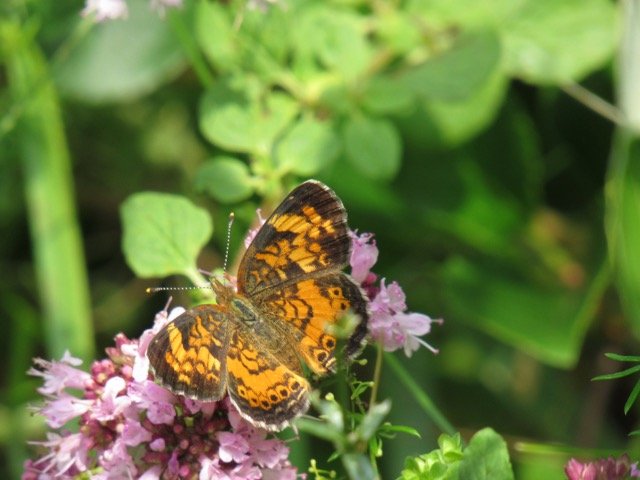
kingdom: Animalia
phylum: Arthropoda
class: Insecta
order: Lepidoptera
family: Nymphalidae
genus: Phyciodes
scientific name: Phyciodes tharos
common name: Pearl Crescent
